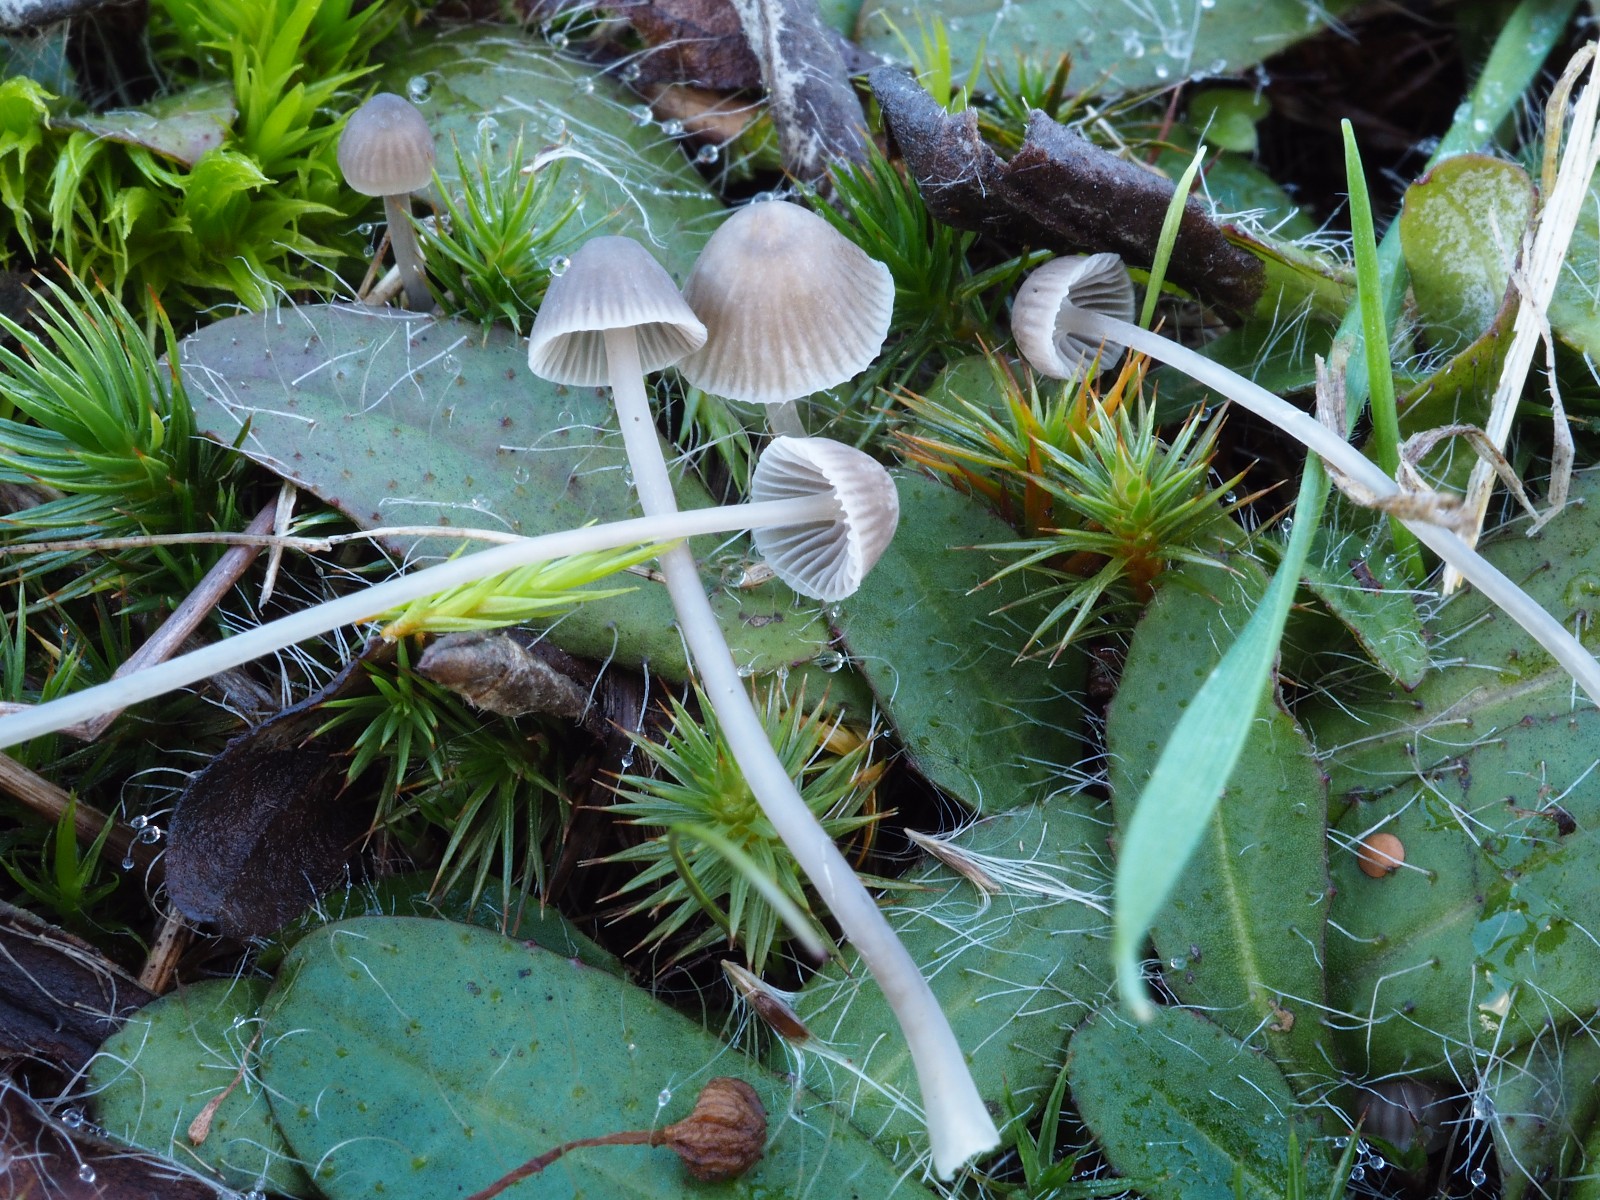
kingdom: Fungi
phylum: Basidiomycota
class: Agaricomycetes
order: Agaricales
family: Mycenaceae
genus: Mycena
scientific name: Mycena cinerella
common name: mel-huesvamp
